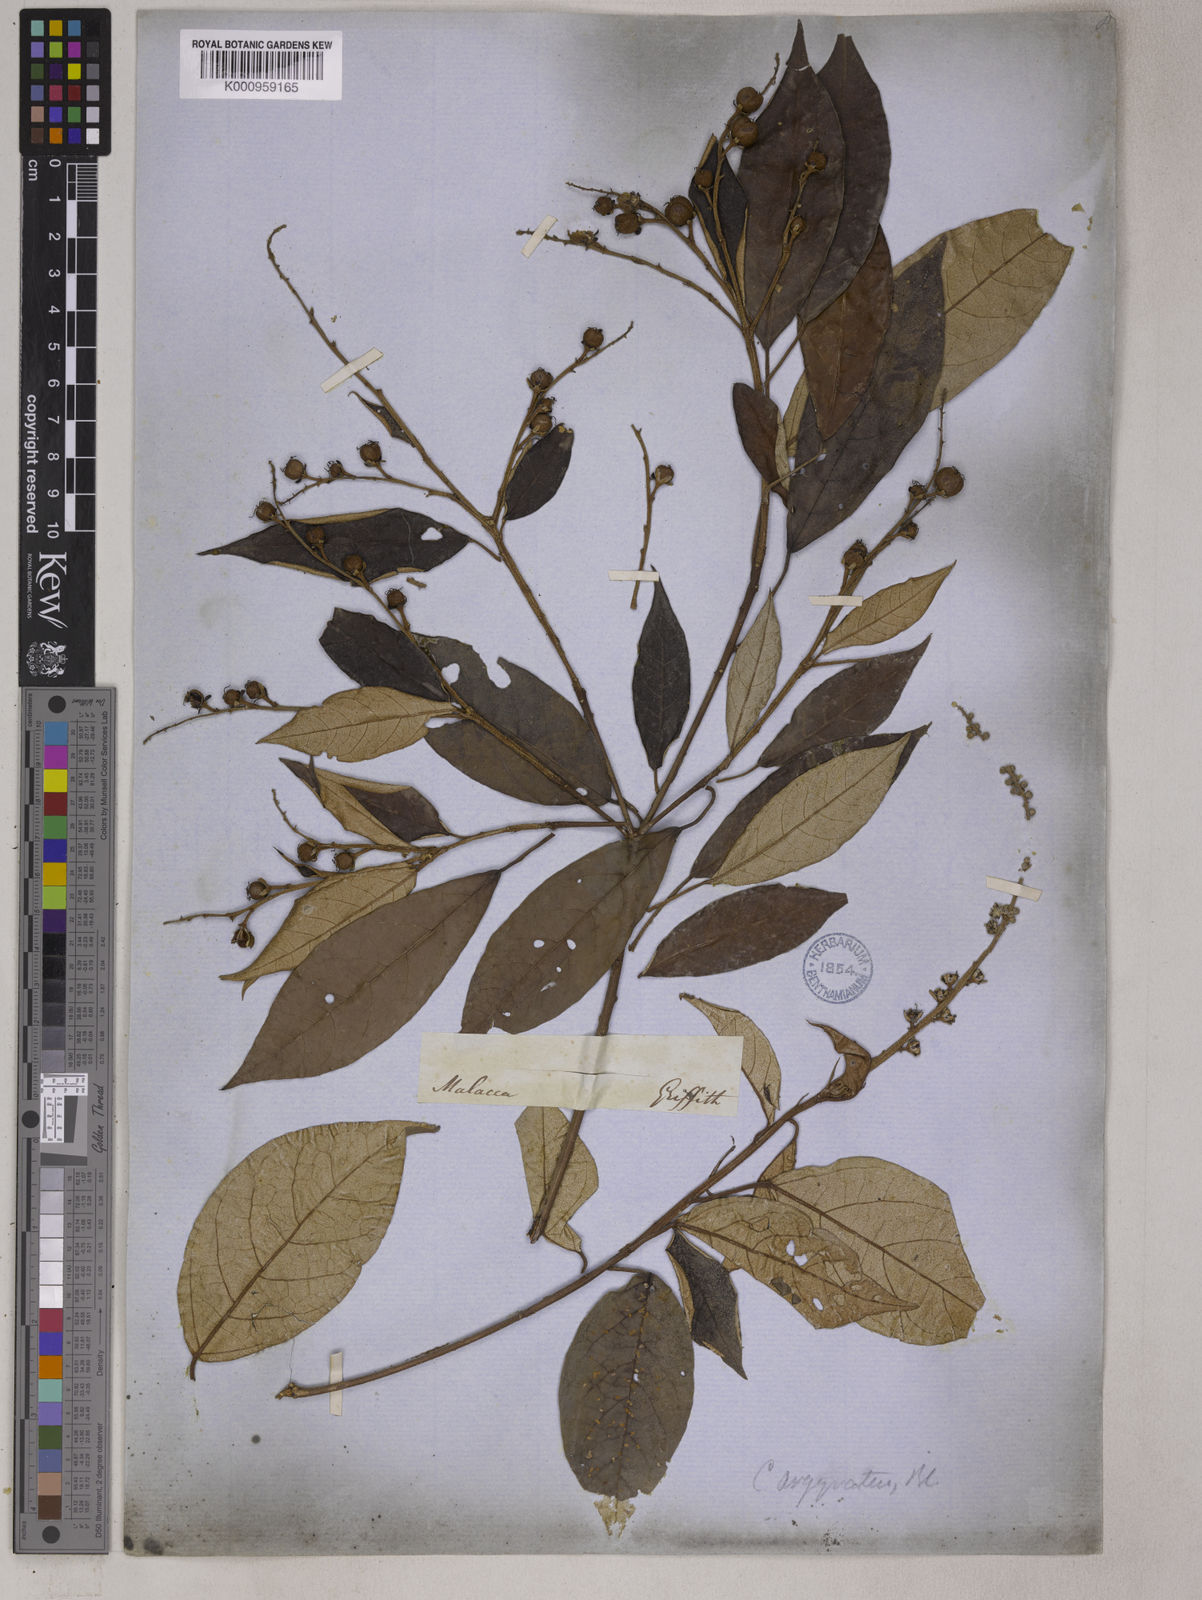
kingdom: Plantae
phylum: Tracheophyta
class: Magnoliopsida
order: Malpighiales
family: Euphorbiaceae
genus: Croton
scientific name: Croton argyratus
